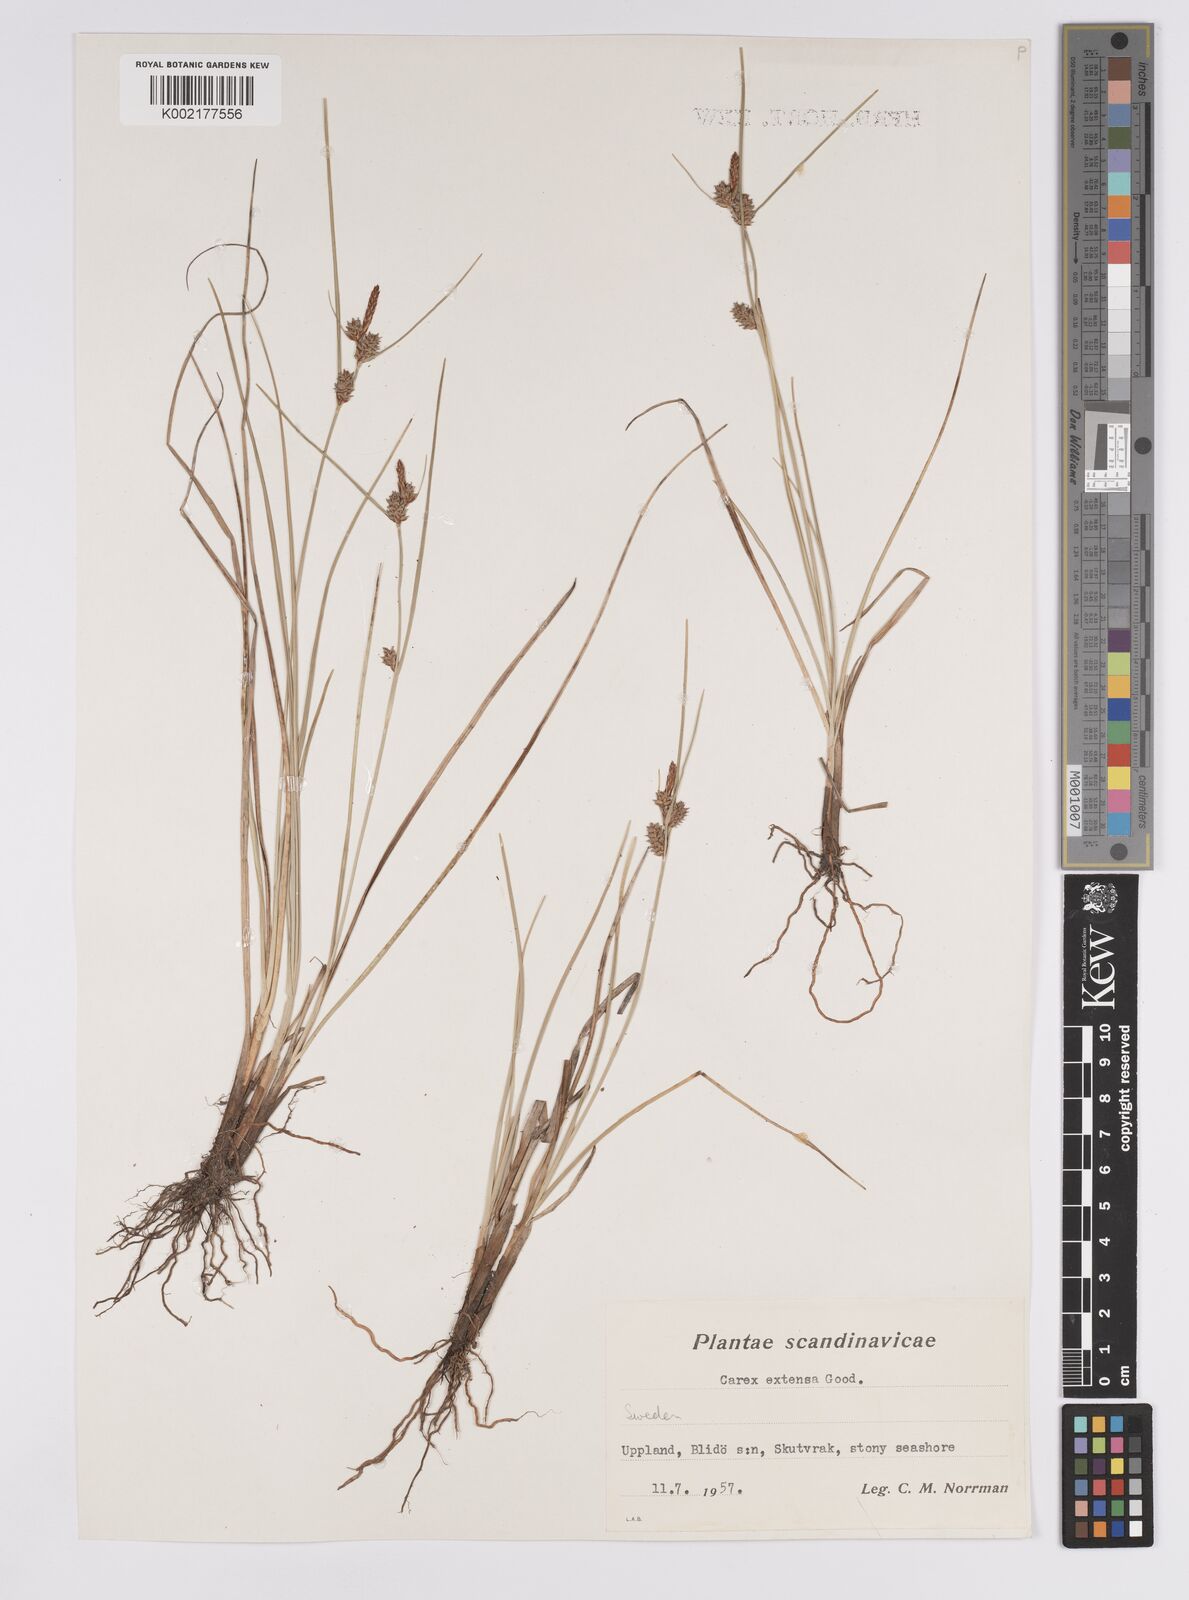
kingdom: Plantae
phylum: Tracheophyta
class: Liliopsida
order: Poales
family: Cyperaceae
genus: Carex
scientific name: Carex extensa
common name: Long-bracted sedge
